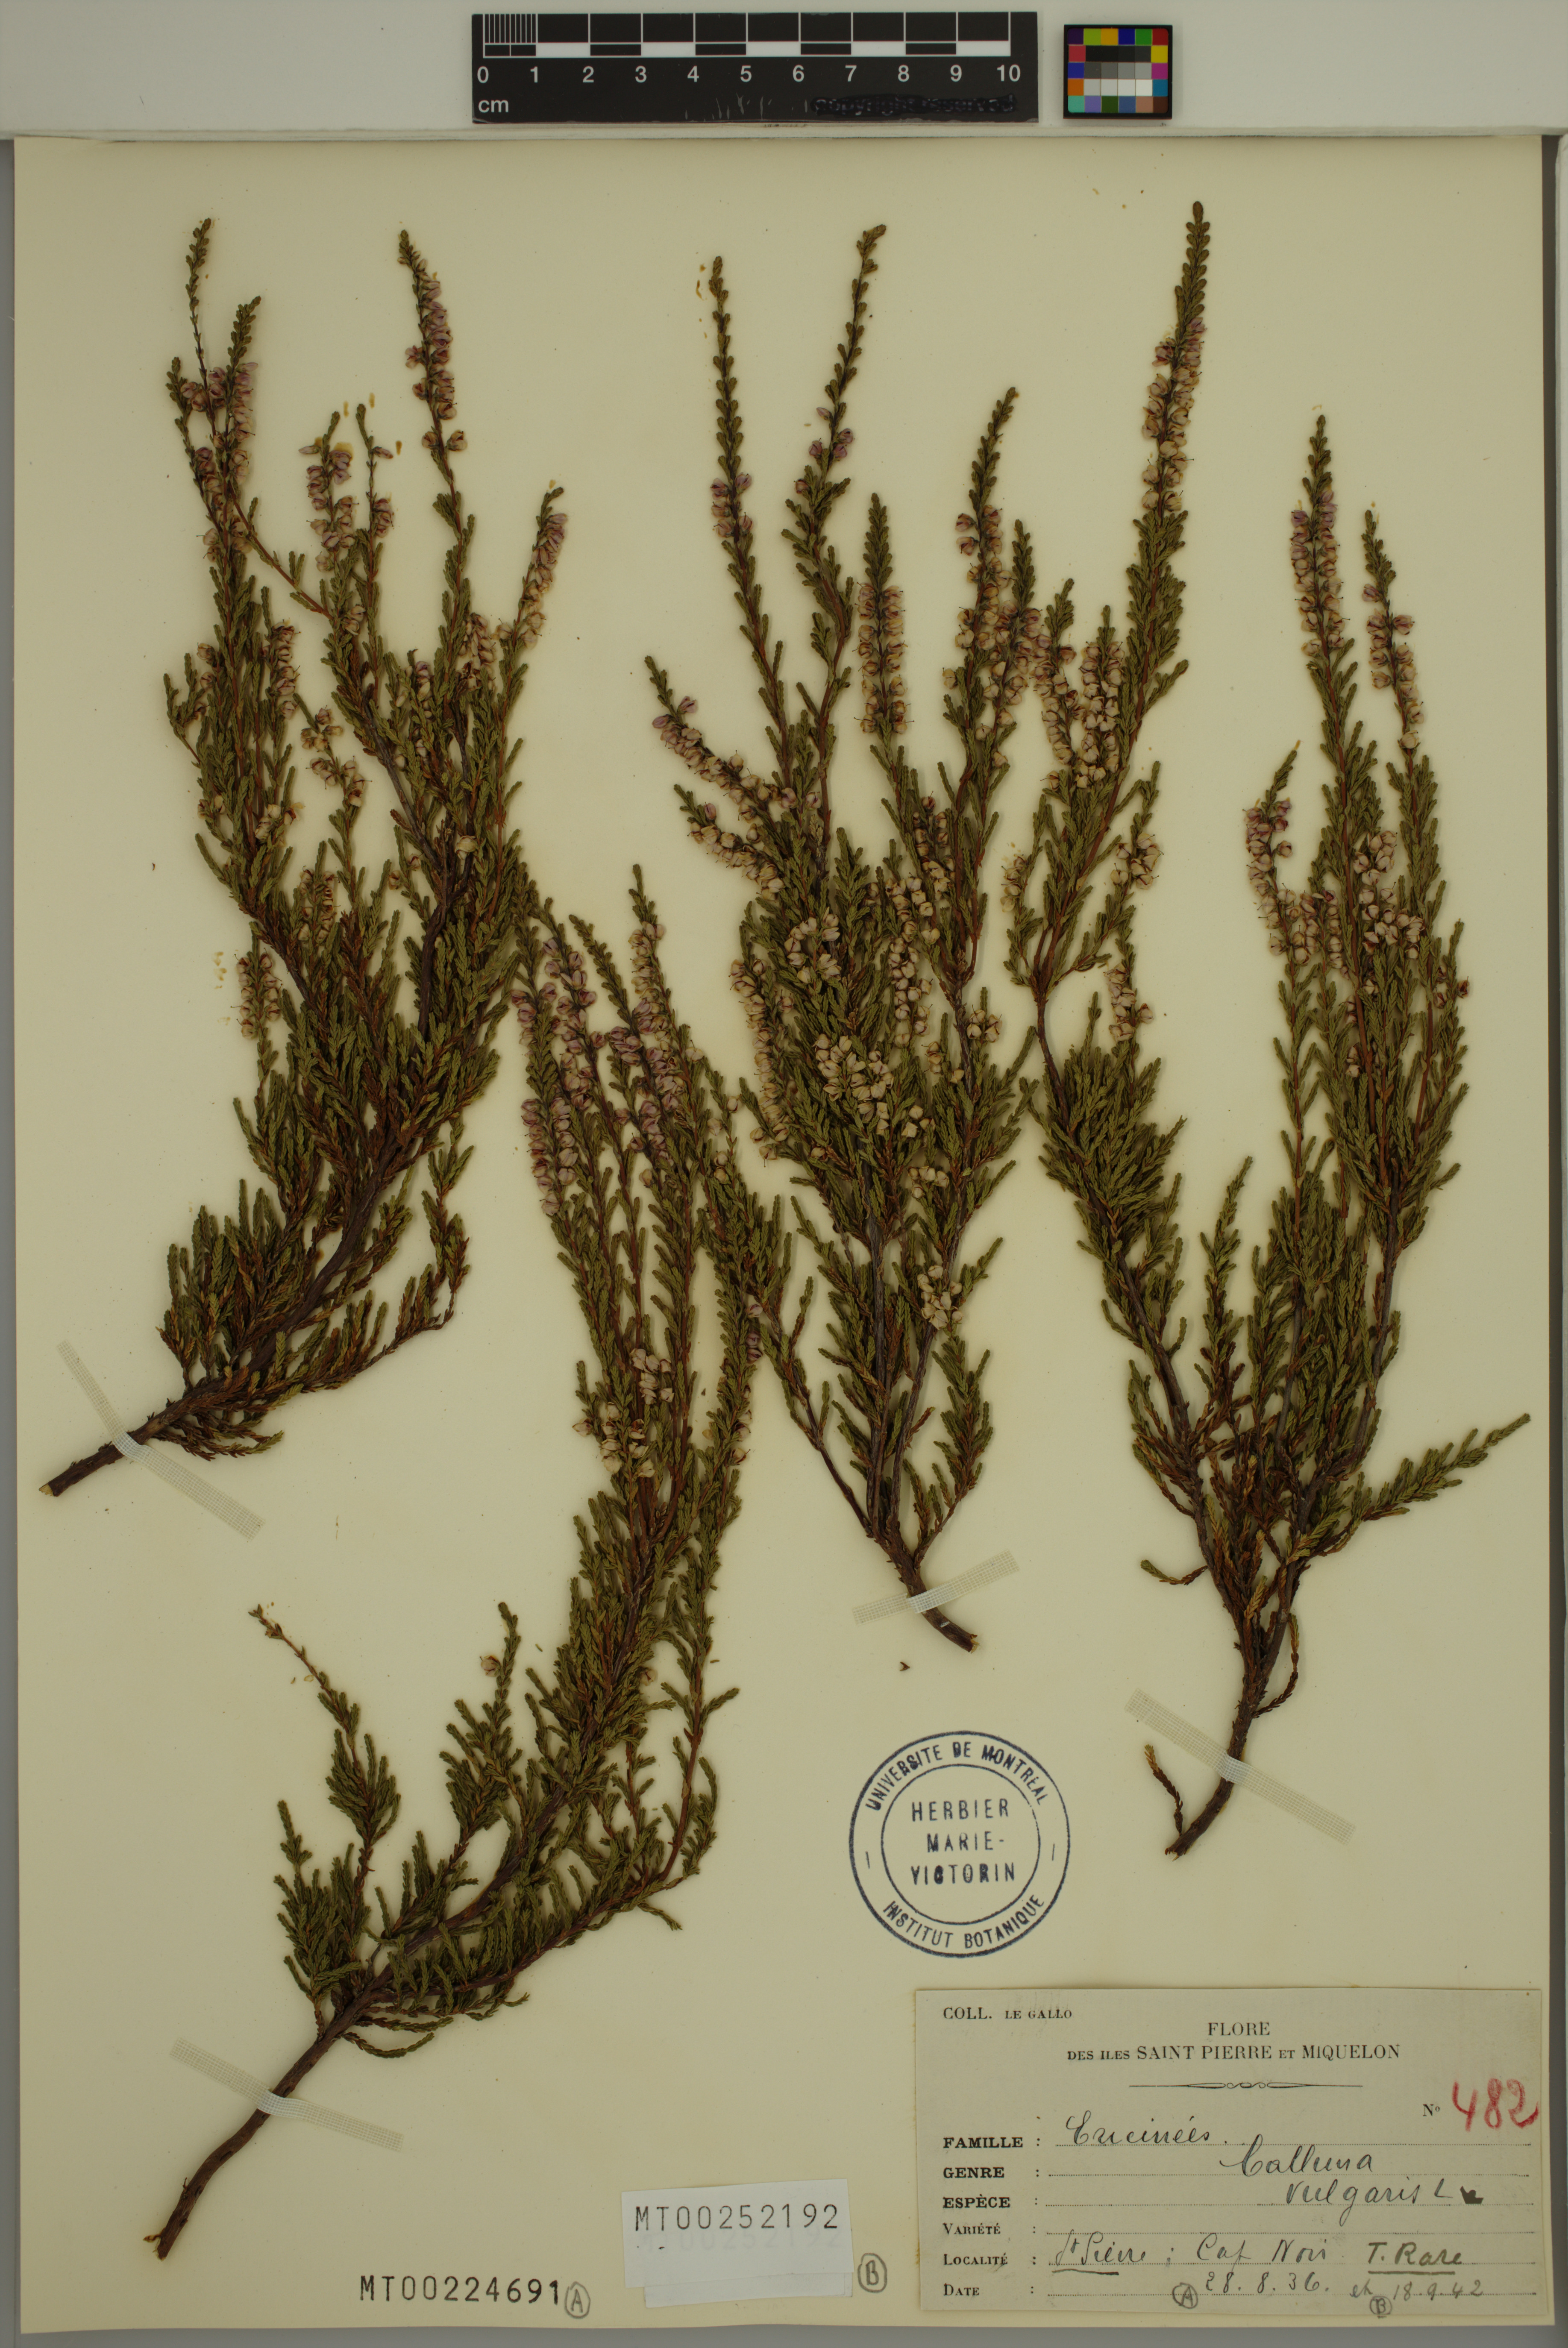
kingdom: Plantae
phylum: Tracheophyta
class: Magnoliopsida
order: Ericales
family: Ericaceae
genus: Calluna
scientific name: Calluna vulgaris
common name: Heather
